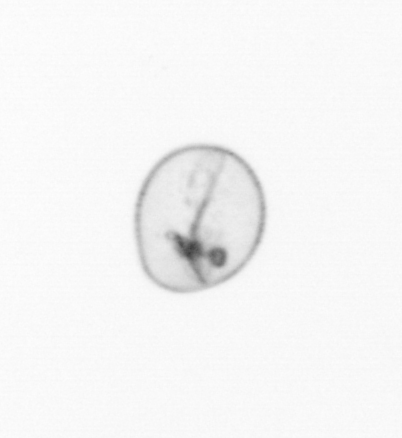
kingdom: Chromista
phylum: Myzozoa
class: Dinophyceae
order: Noctilucales
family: Noctilucaceae
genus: Noctiluca
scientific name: Noctiluca scintillans
